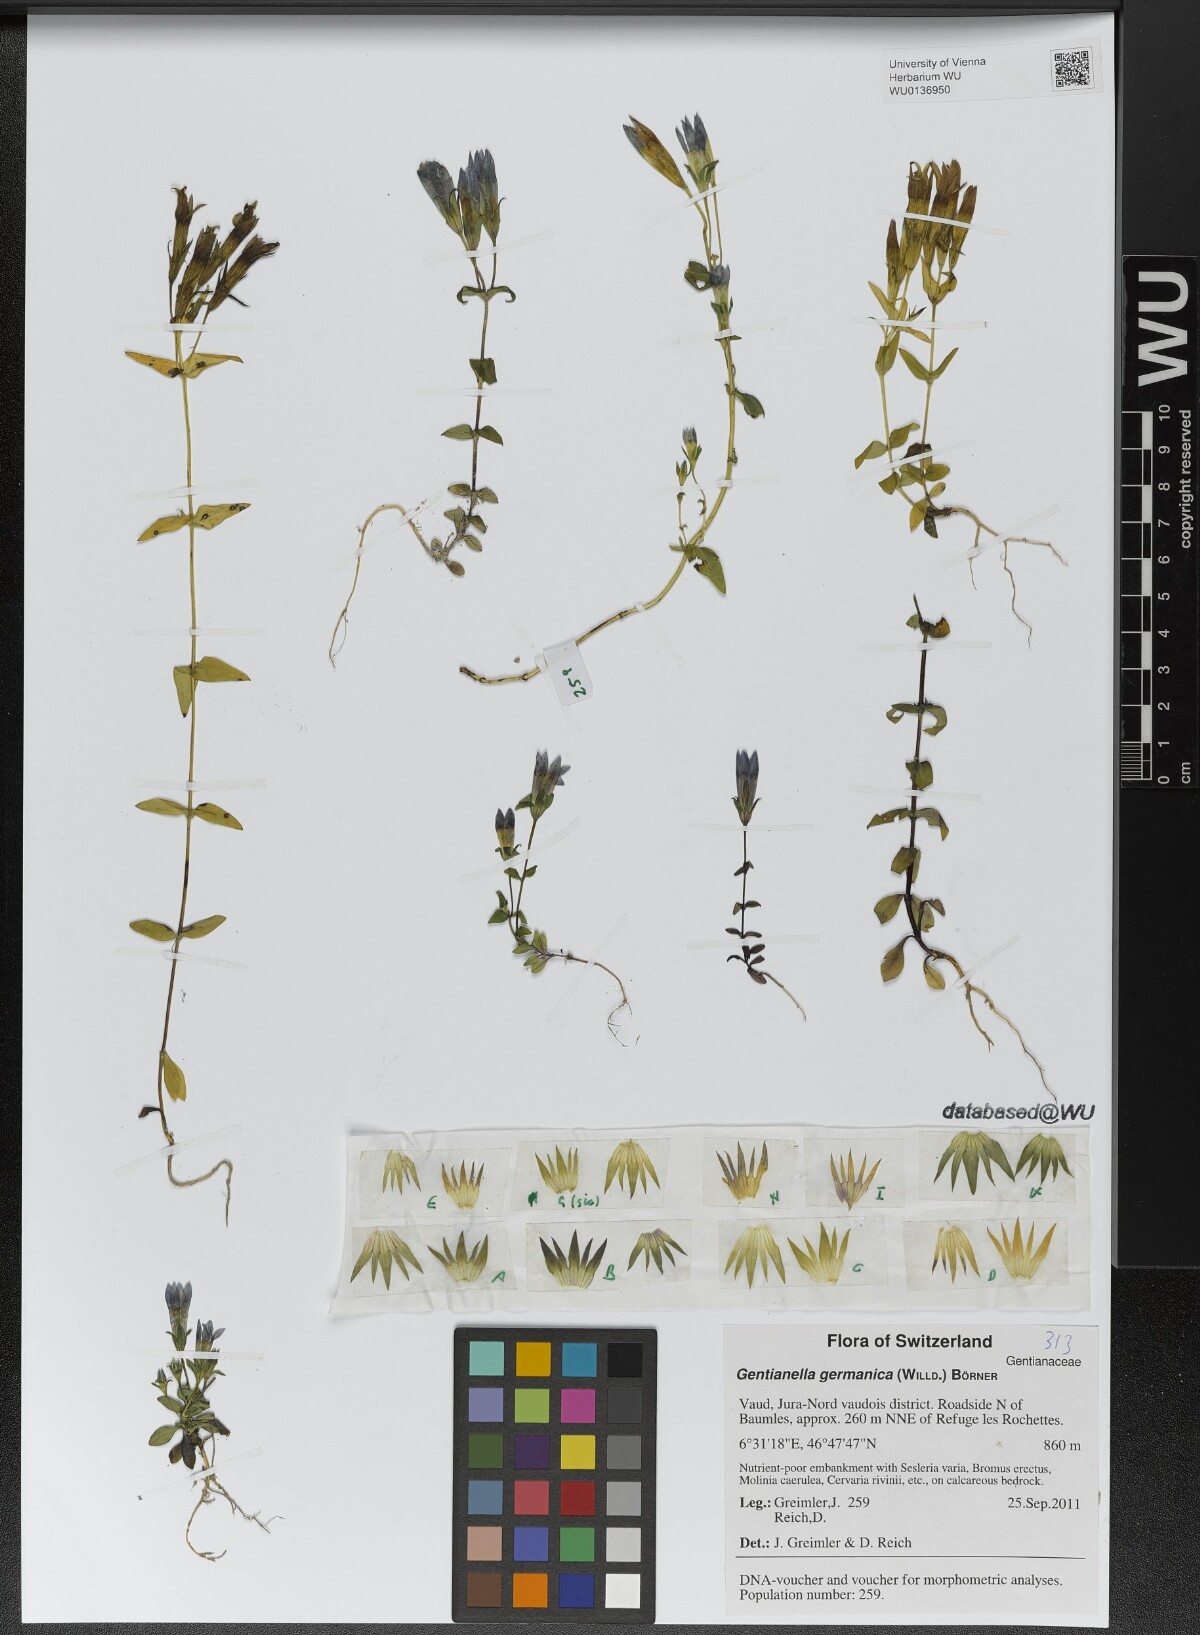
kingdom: Plantae
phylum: Tracheophyta
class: Magnoliopsida
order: Gentianales
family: Gentianaceae
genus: Gentianella
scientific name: Gentianella germanica
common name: Chiltern-gentian
